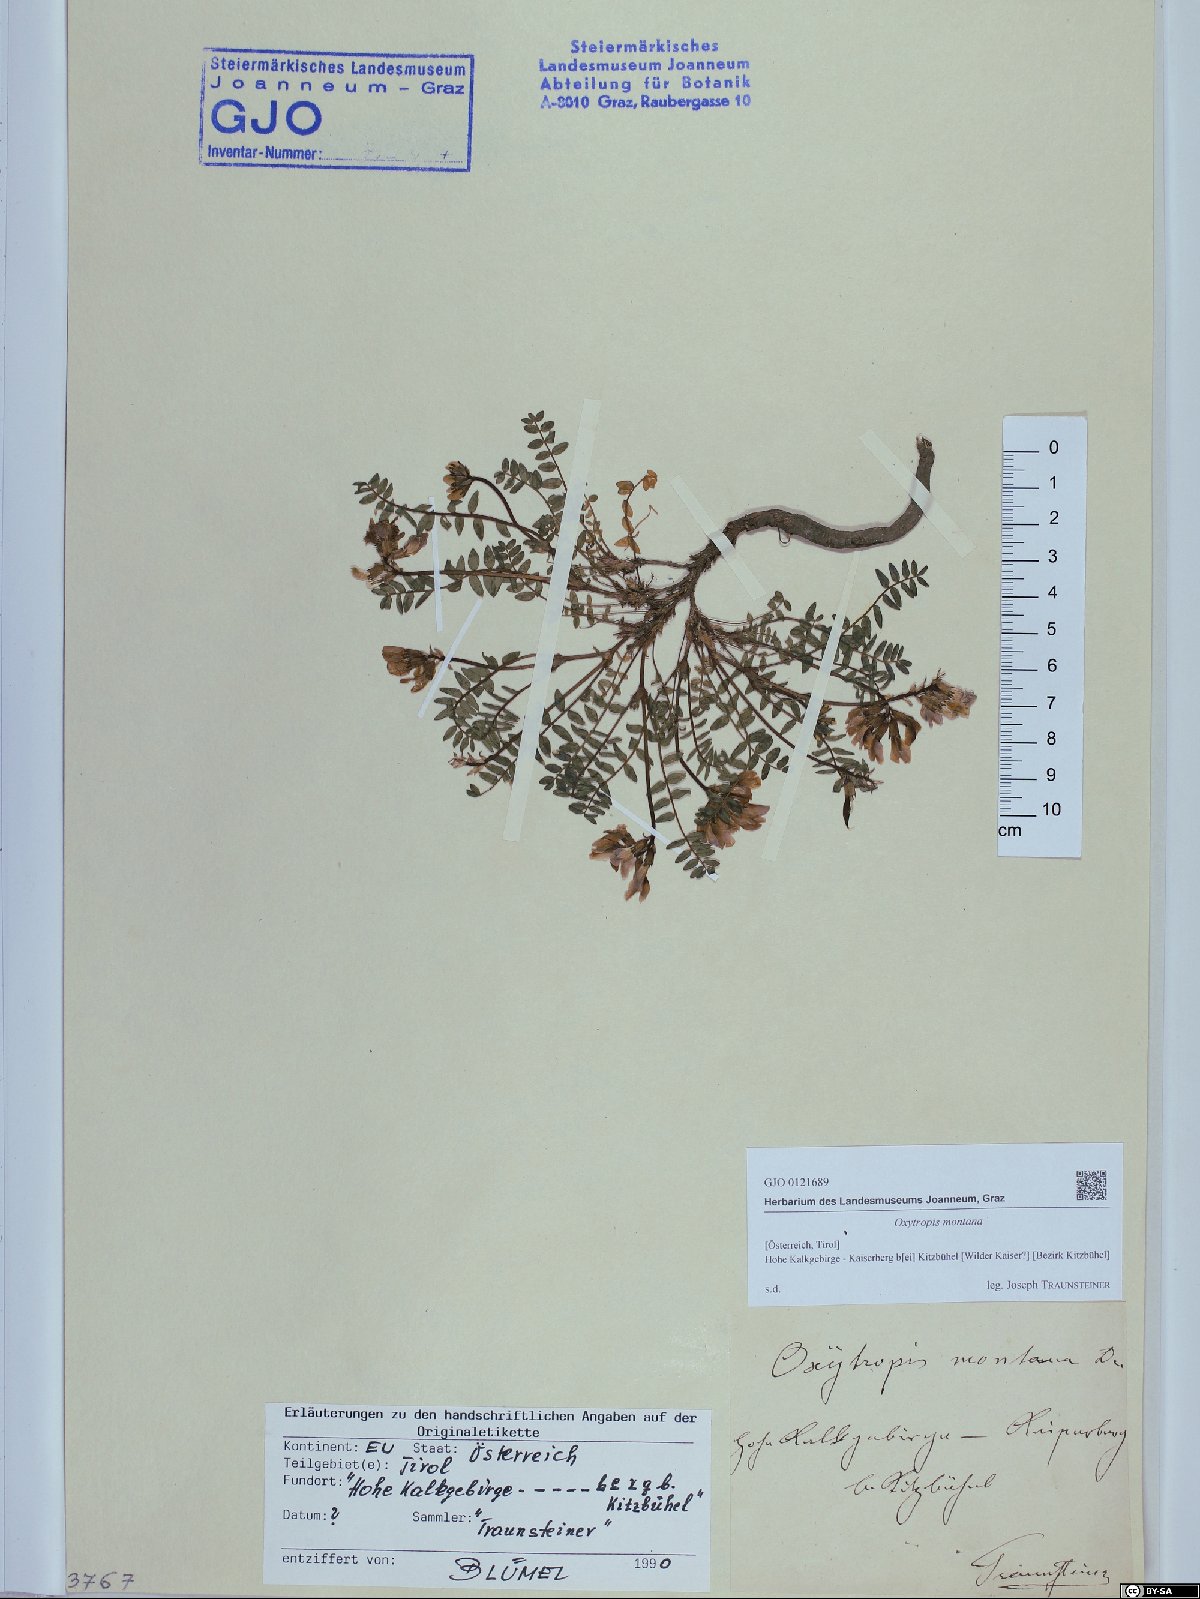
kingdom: Plantae
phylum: Tracheophyta
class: Magnoliopsida
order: Fabales
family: Fabaceae
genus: Oxytropis
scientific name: Oxytropis montana
